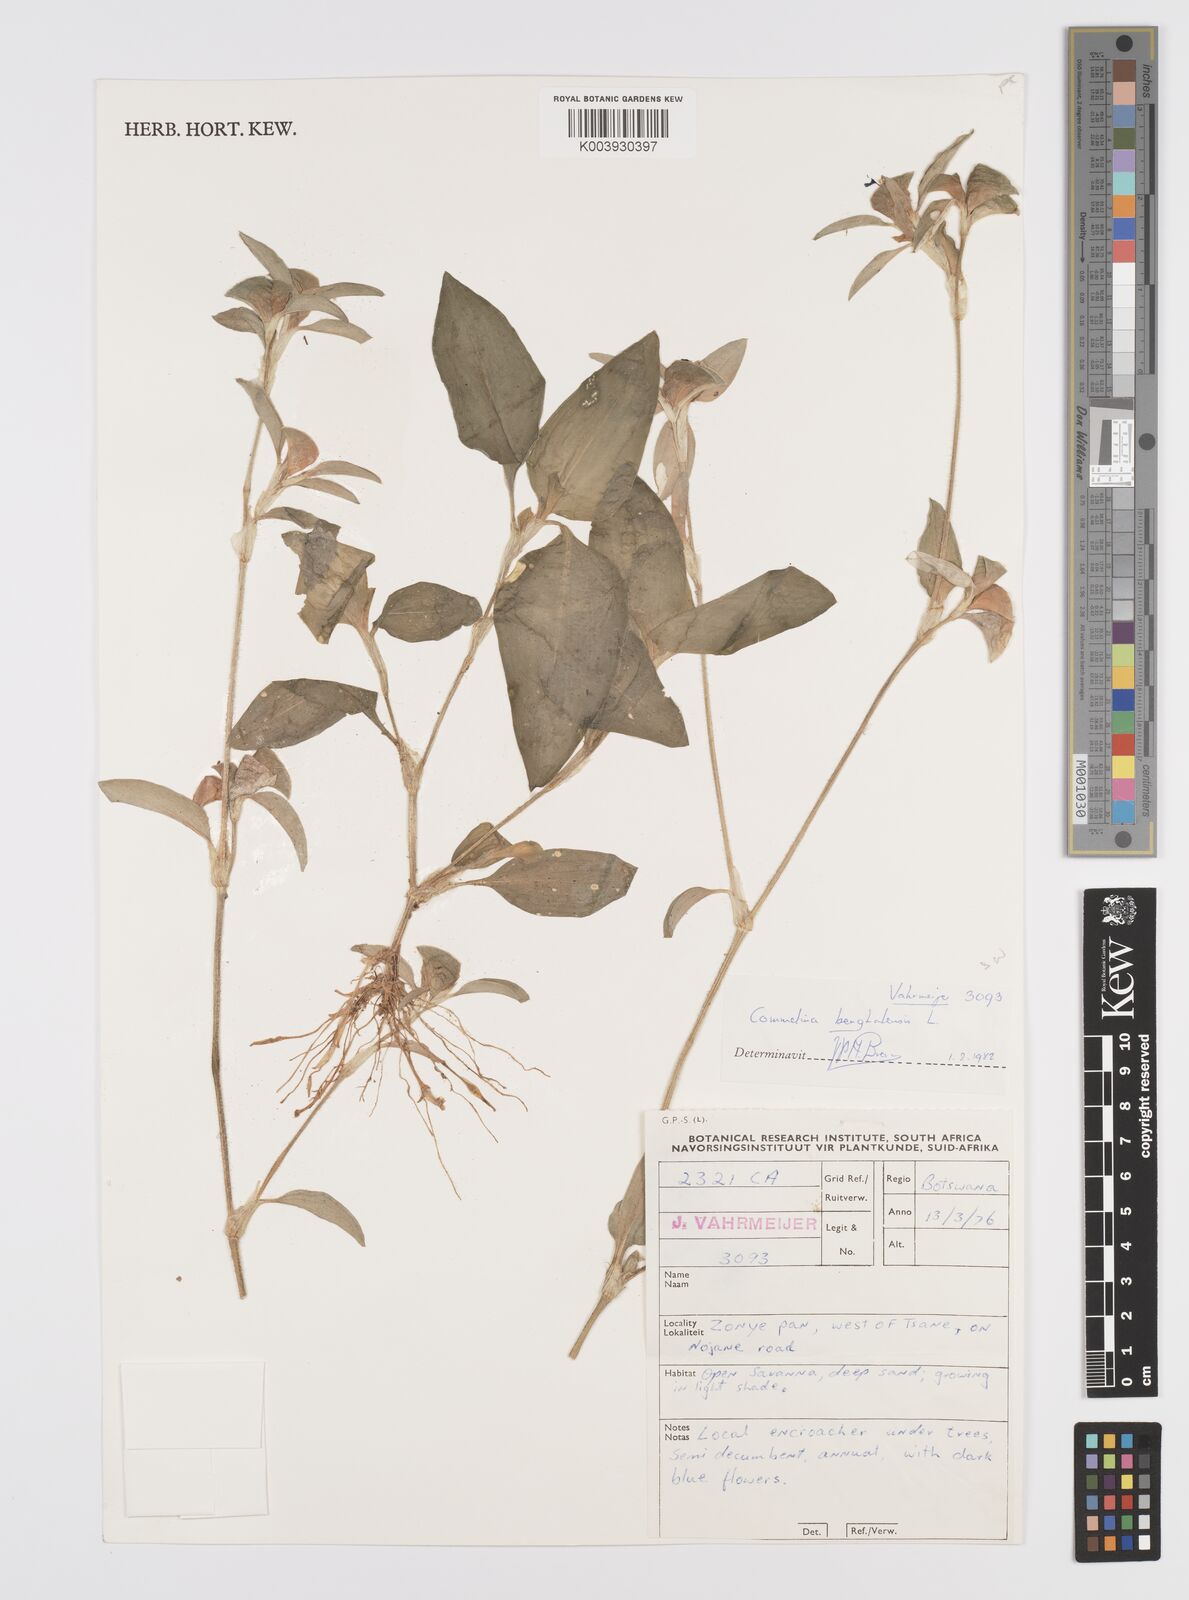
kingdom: Plantae
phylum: Tracheophyta
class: Liliopsida
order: Commelinales
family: Commelinaceae
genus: Commelina
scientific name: Commelina benghalensis
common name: Jio
